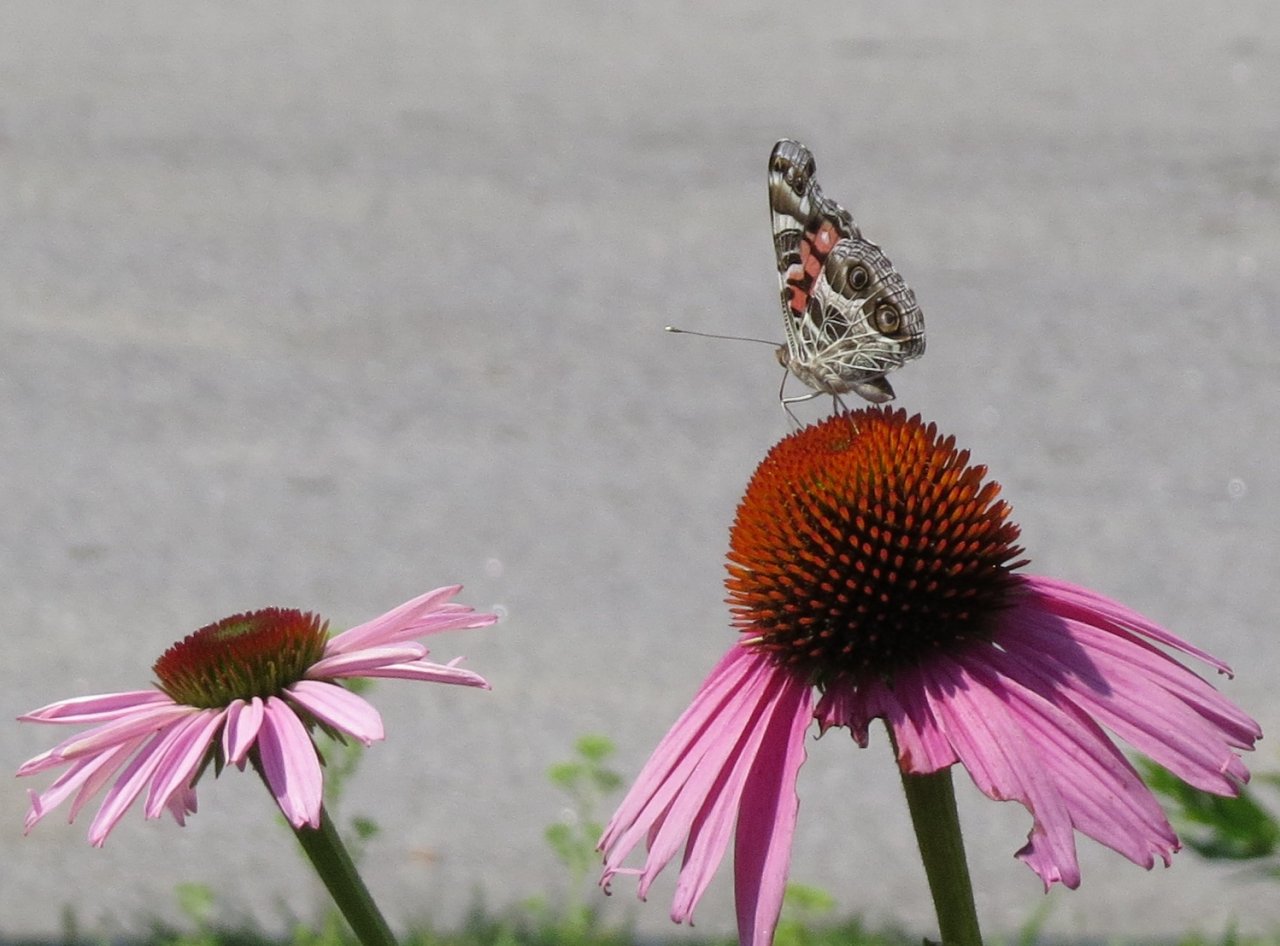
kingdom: Animalia
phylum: Arthropoda
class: Insecta
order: Lepidoptera
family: Nymphalidae
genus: Vanessa
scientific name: Vanessa virginiensis
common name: American Lady
